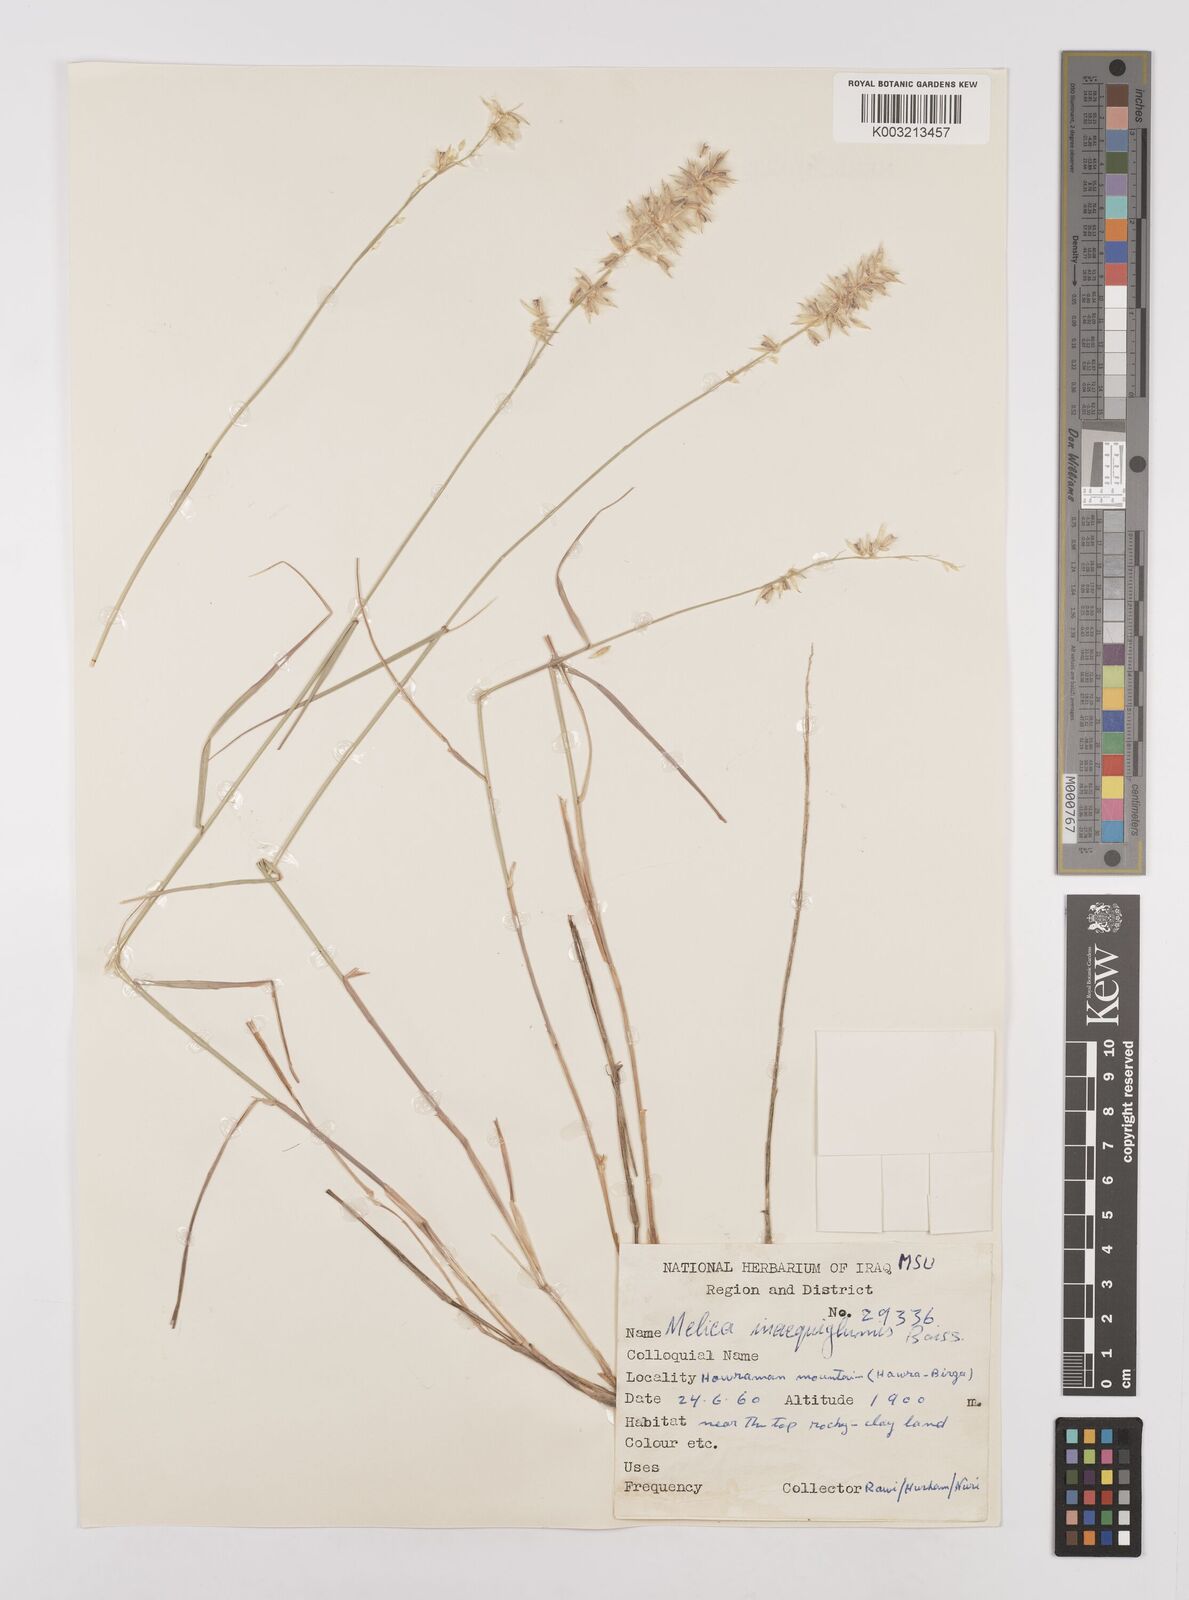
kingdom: Plantae
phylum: Tracheophyta
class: Liliopsida
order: Poales
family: Poaceae
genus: Melica
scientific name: Melica persica
